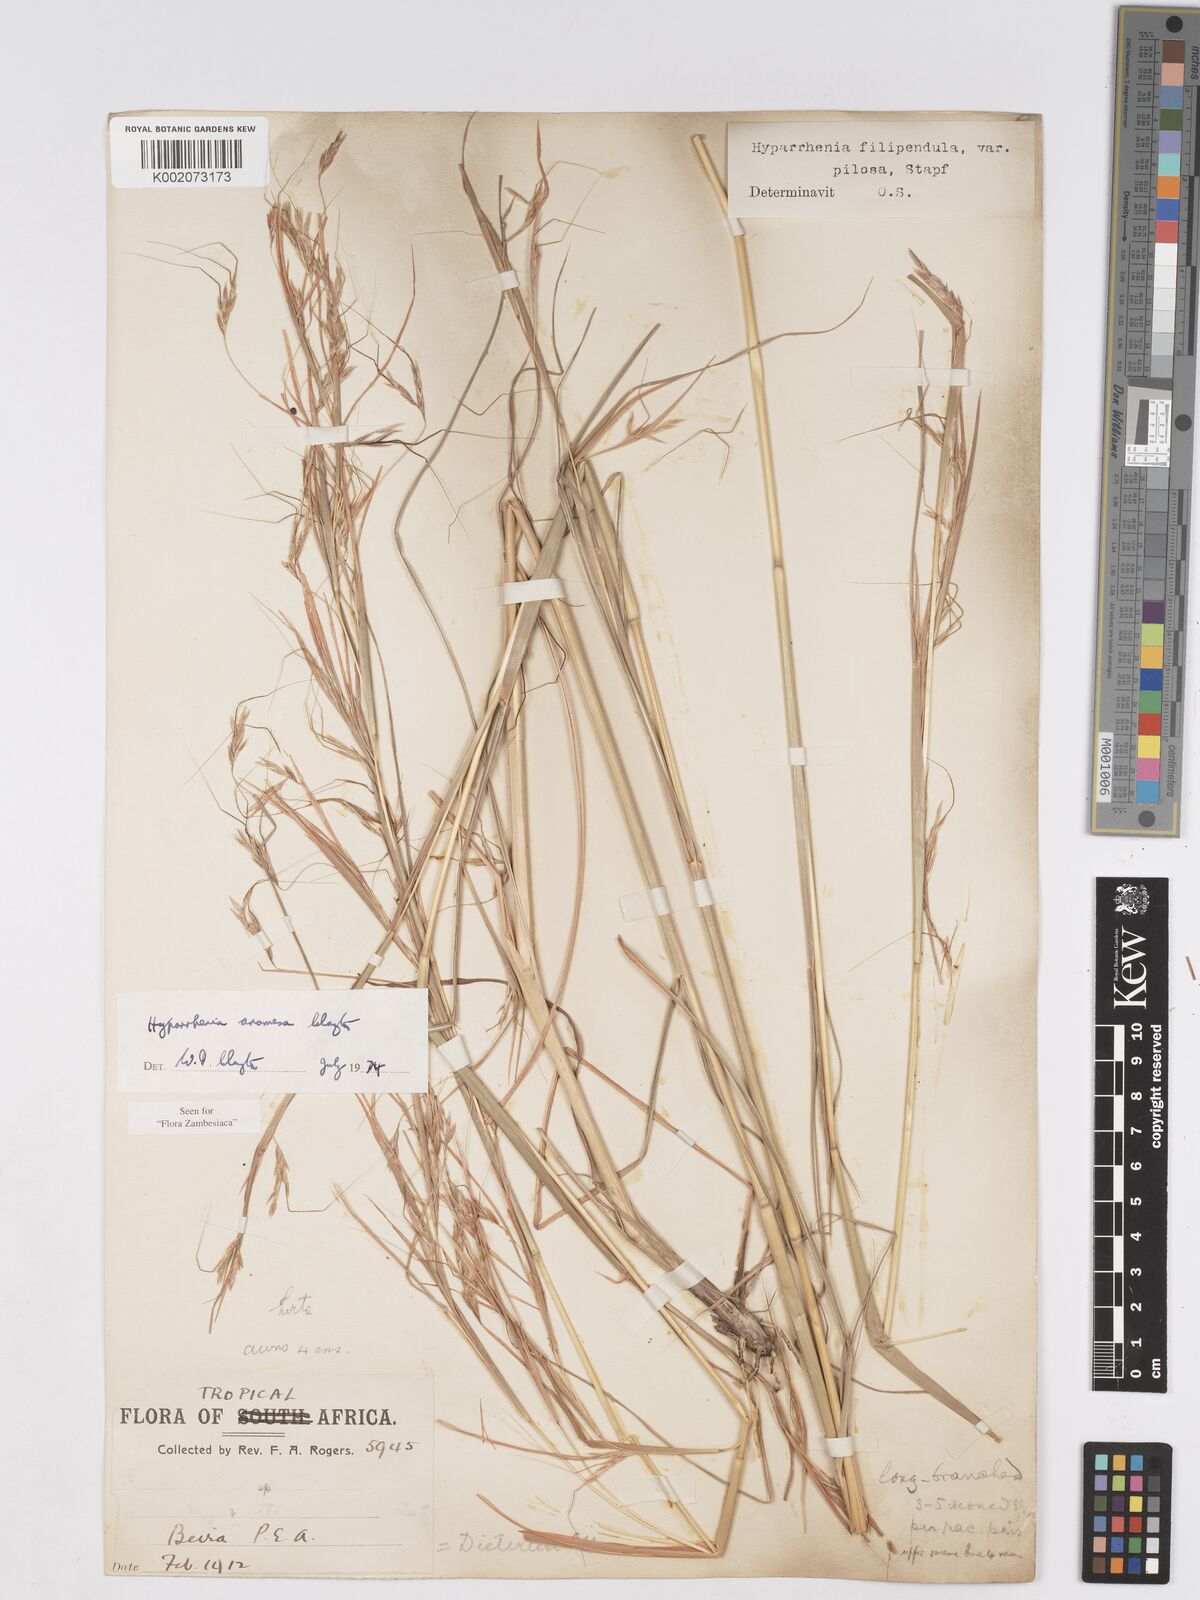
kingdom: Plantae
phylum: Tracheophyta
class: Liliopsida
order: Poales
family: Poaceae
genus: Hyparrhenia
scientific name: Hyparrhenia anamesa
